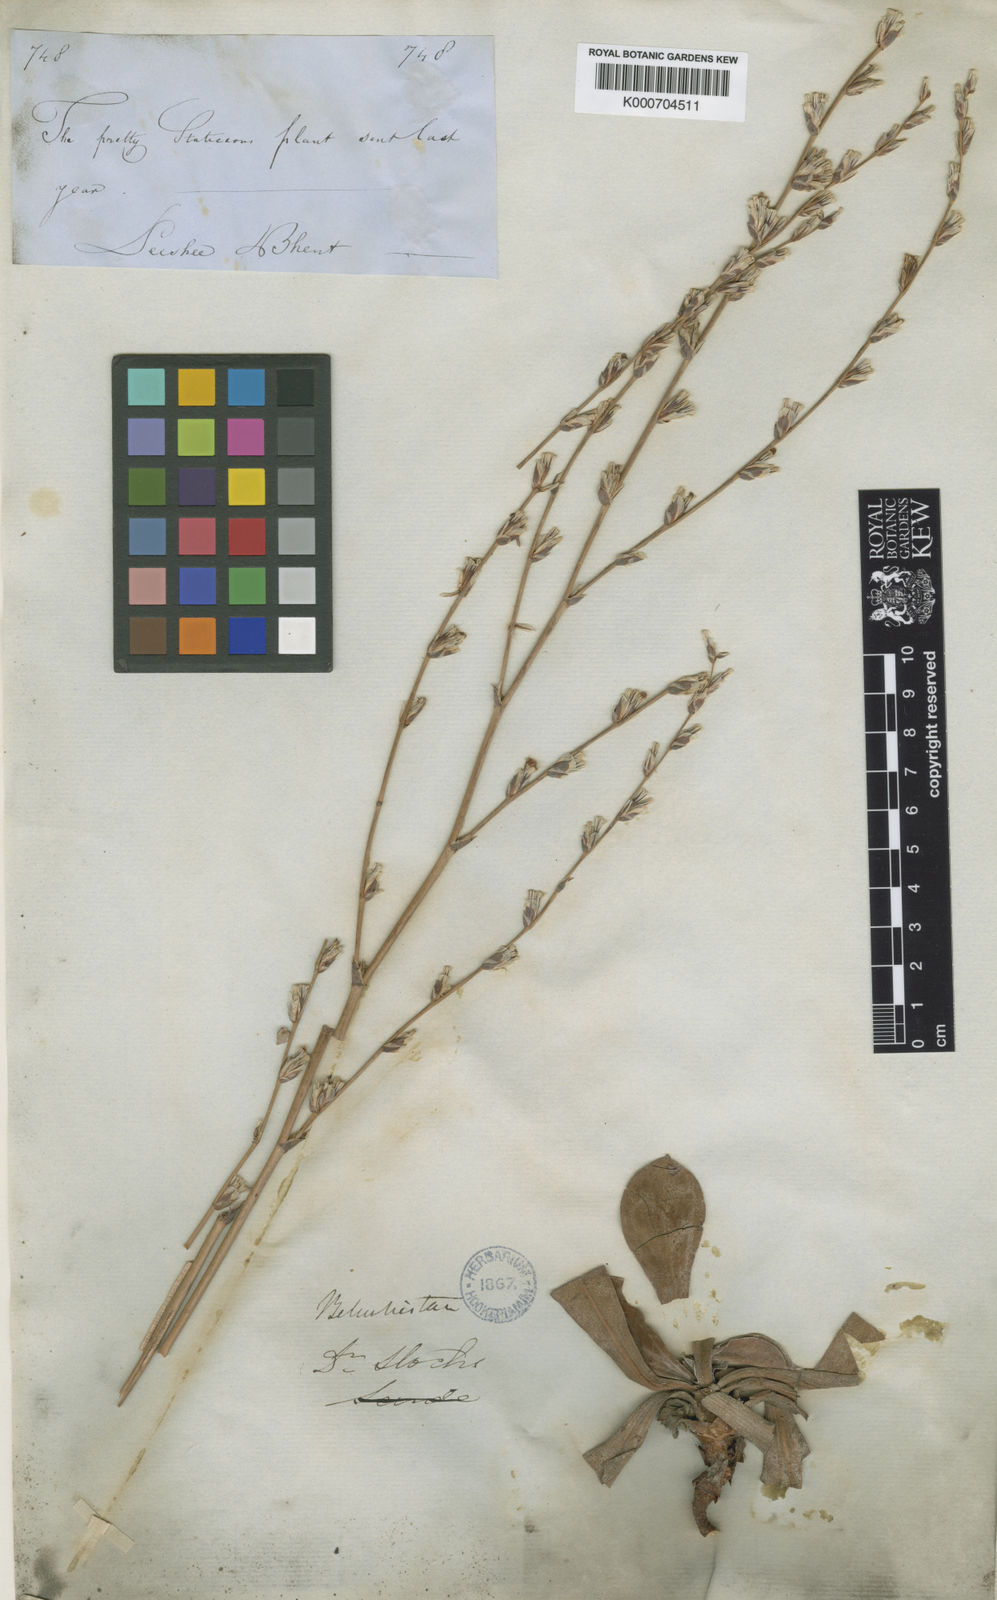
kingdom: Plantae
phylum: Tracheophyta
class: Magnoliopsida
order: Caryophyllales
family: Plumbaginaceae
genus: Dictyolimon
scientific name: Dictyolimon macrorrhabdos
